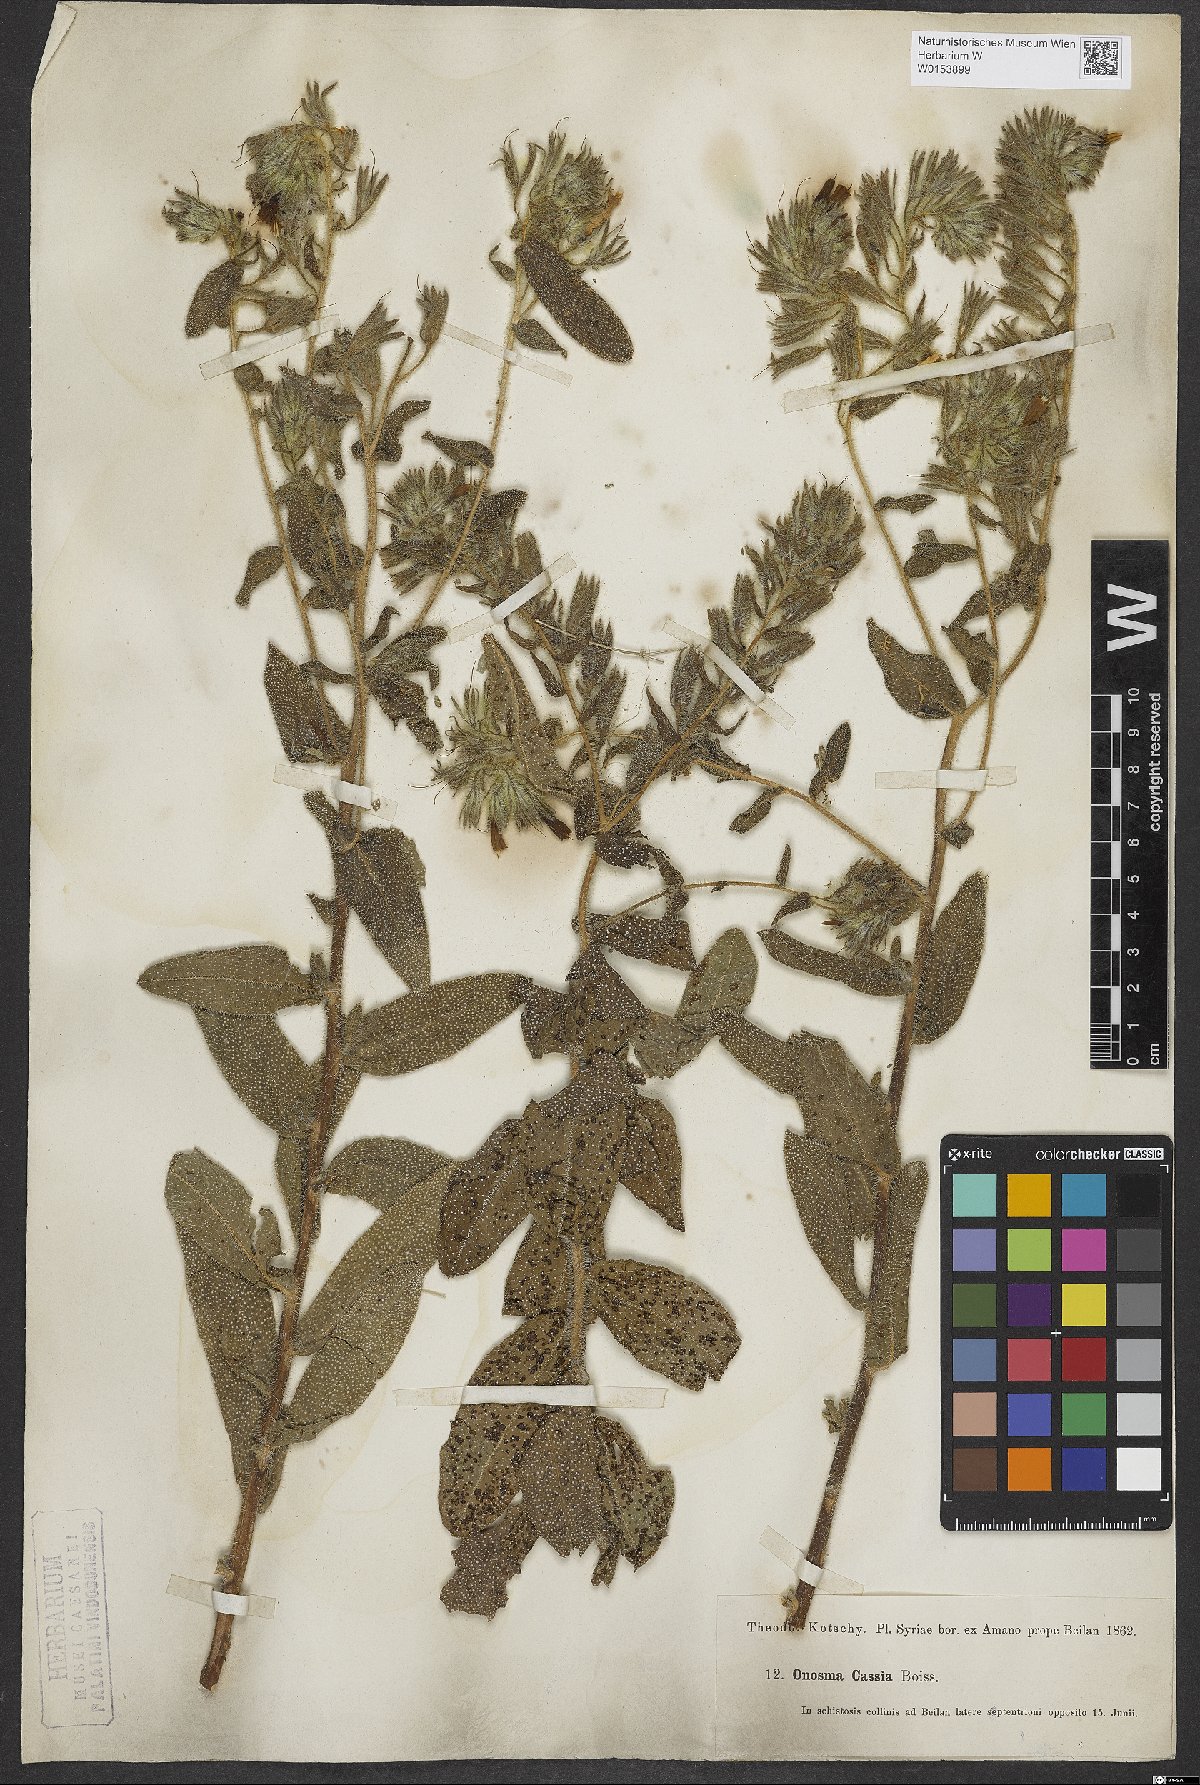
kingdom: Plantae
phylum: Tracheophyta
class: Magnoliopsida
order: Boraginales
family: Boraginaceae
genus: Onosma
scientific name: Onosma cassia
